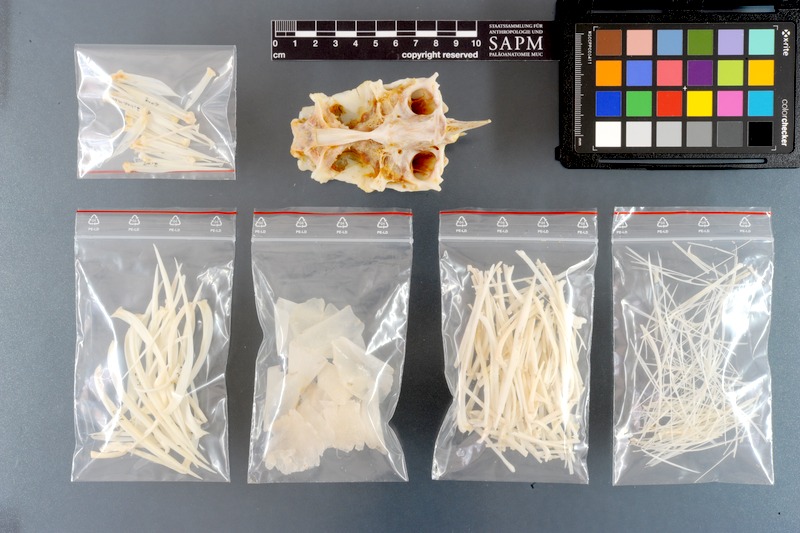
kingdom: Animalia
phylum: Chordata
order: Cypriniformes
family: Cyprinidae
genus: Leptobarbus
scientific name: Leptobarbus hoevenii
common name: Mad barb
